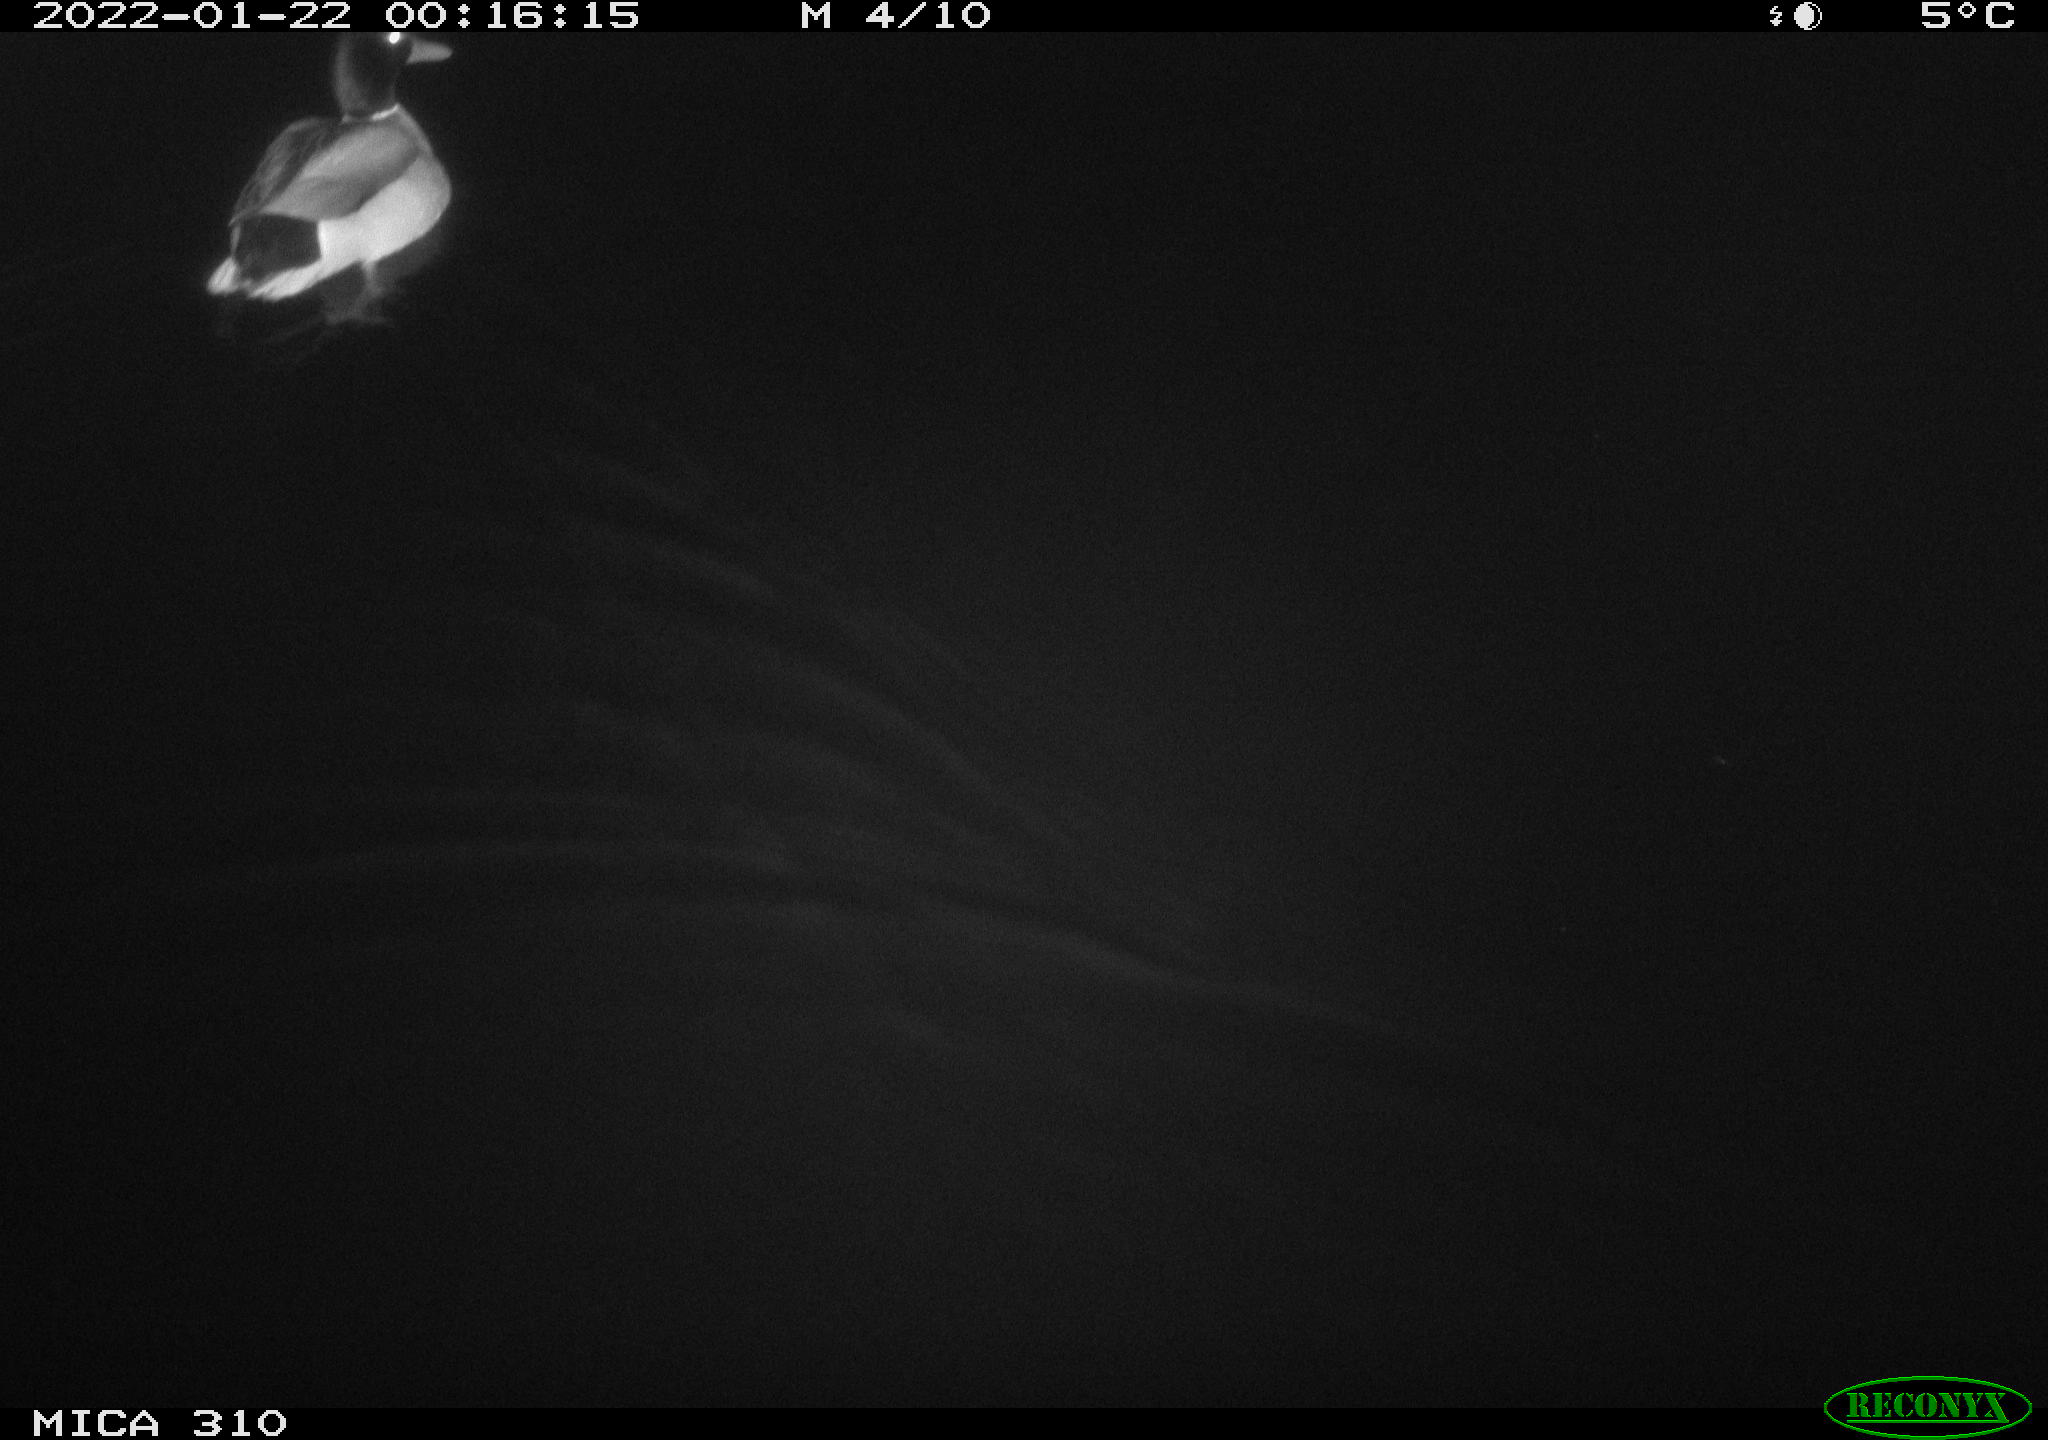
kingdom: Animalia
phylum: Chordata
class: Aves
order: Anseriformes
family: Anatidae
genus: Anas
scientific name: Anas
